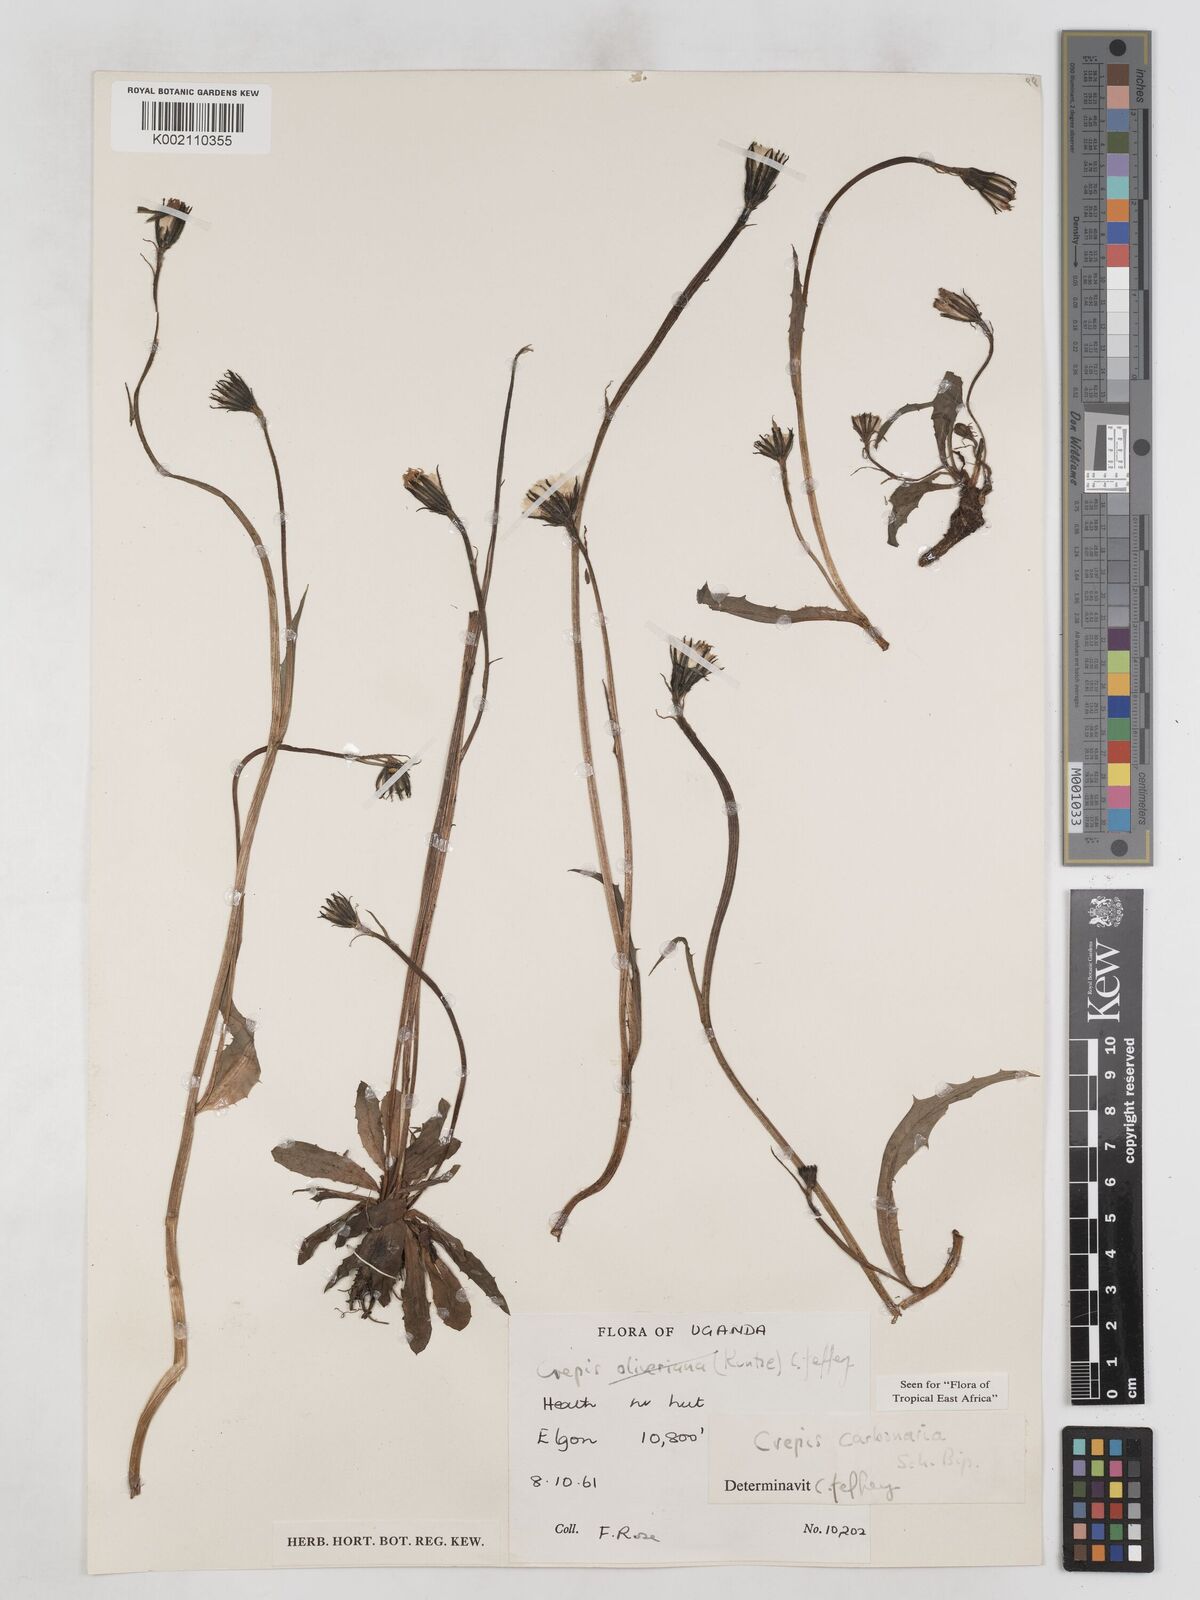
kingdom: Plantae
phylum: Tracheophyta
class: Magnoliopsida
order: Asterales
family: Asteraceae
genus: Crepis
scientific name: Crepis carbonaria
